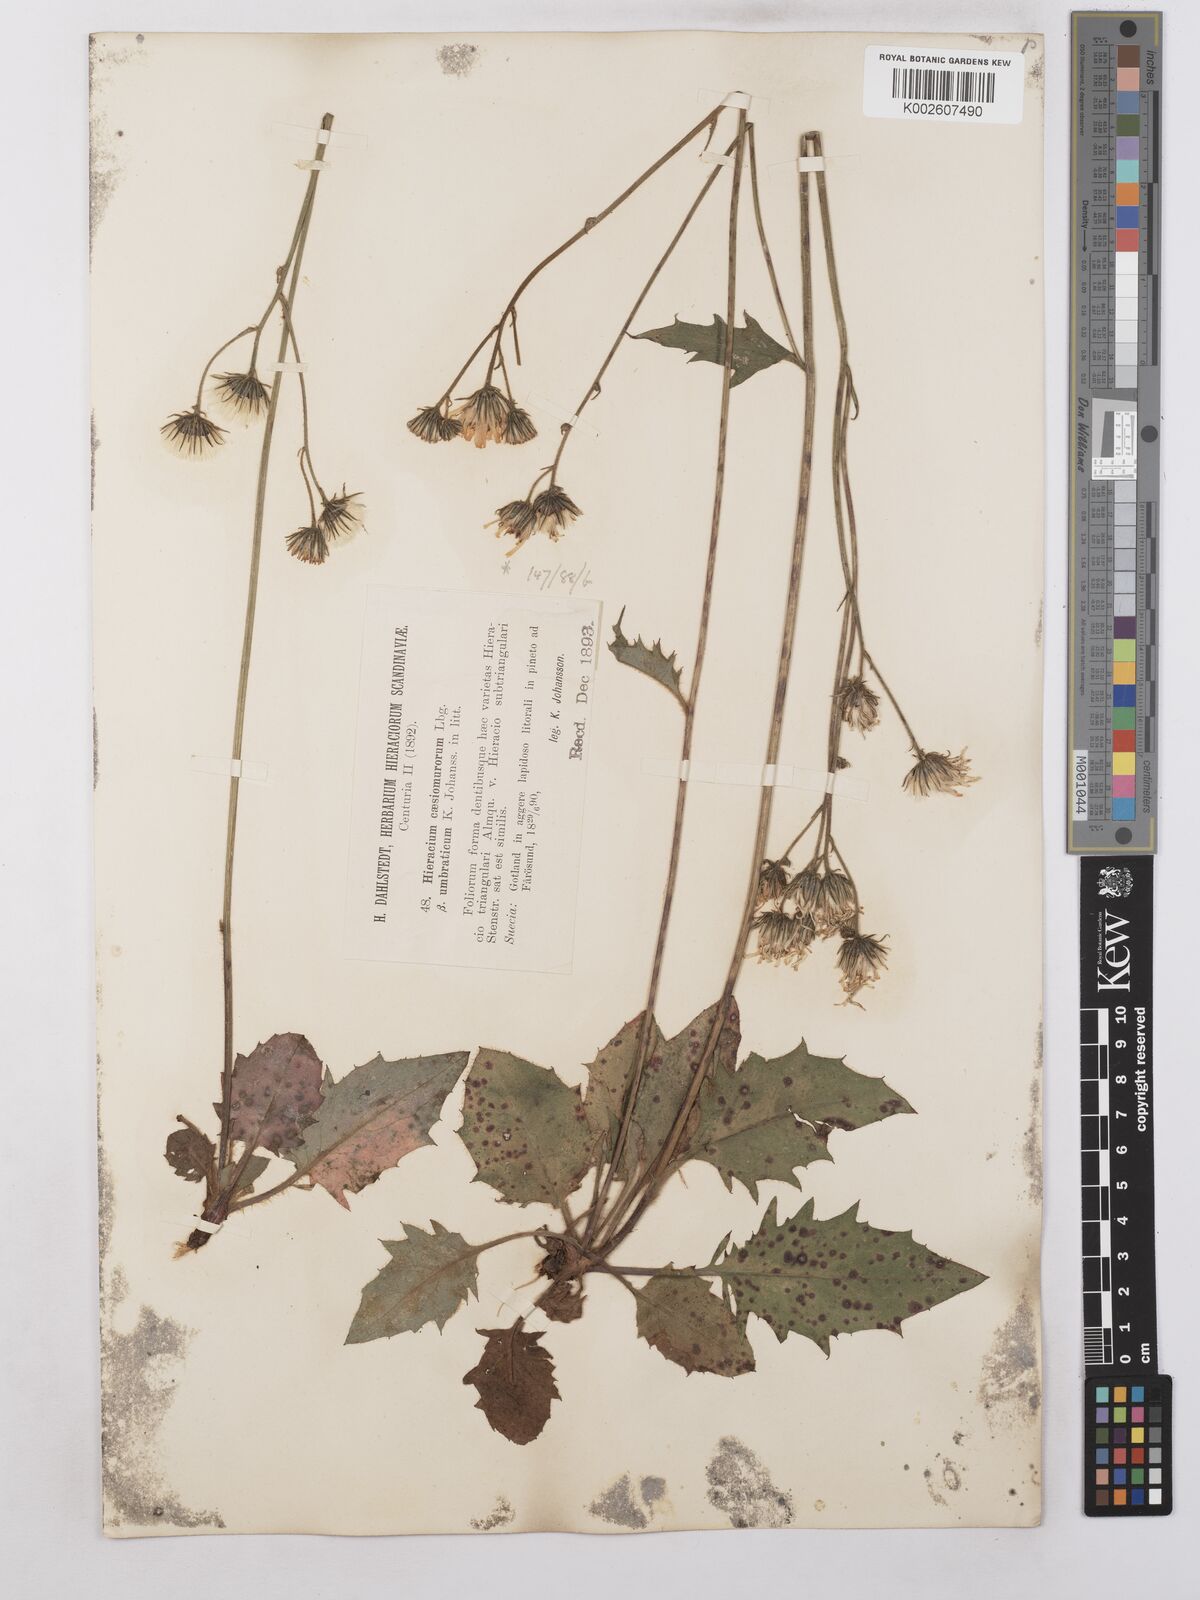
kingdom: Plantae
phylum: Tracheophyta
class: Magnoliopsida
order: Asterales
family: Asteraceae
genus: Hieracium
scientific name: Hieracium caesium
